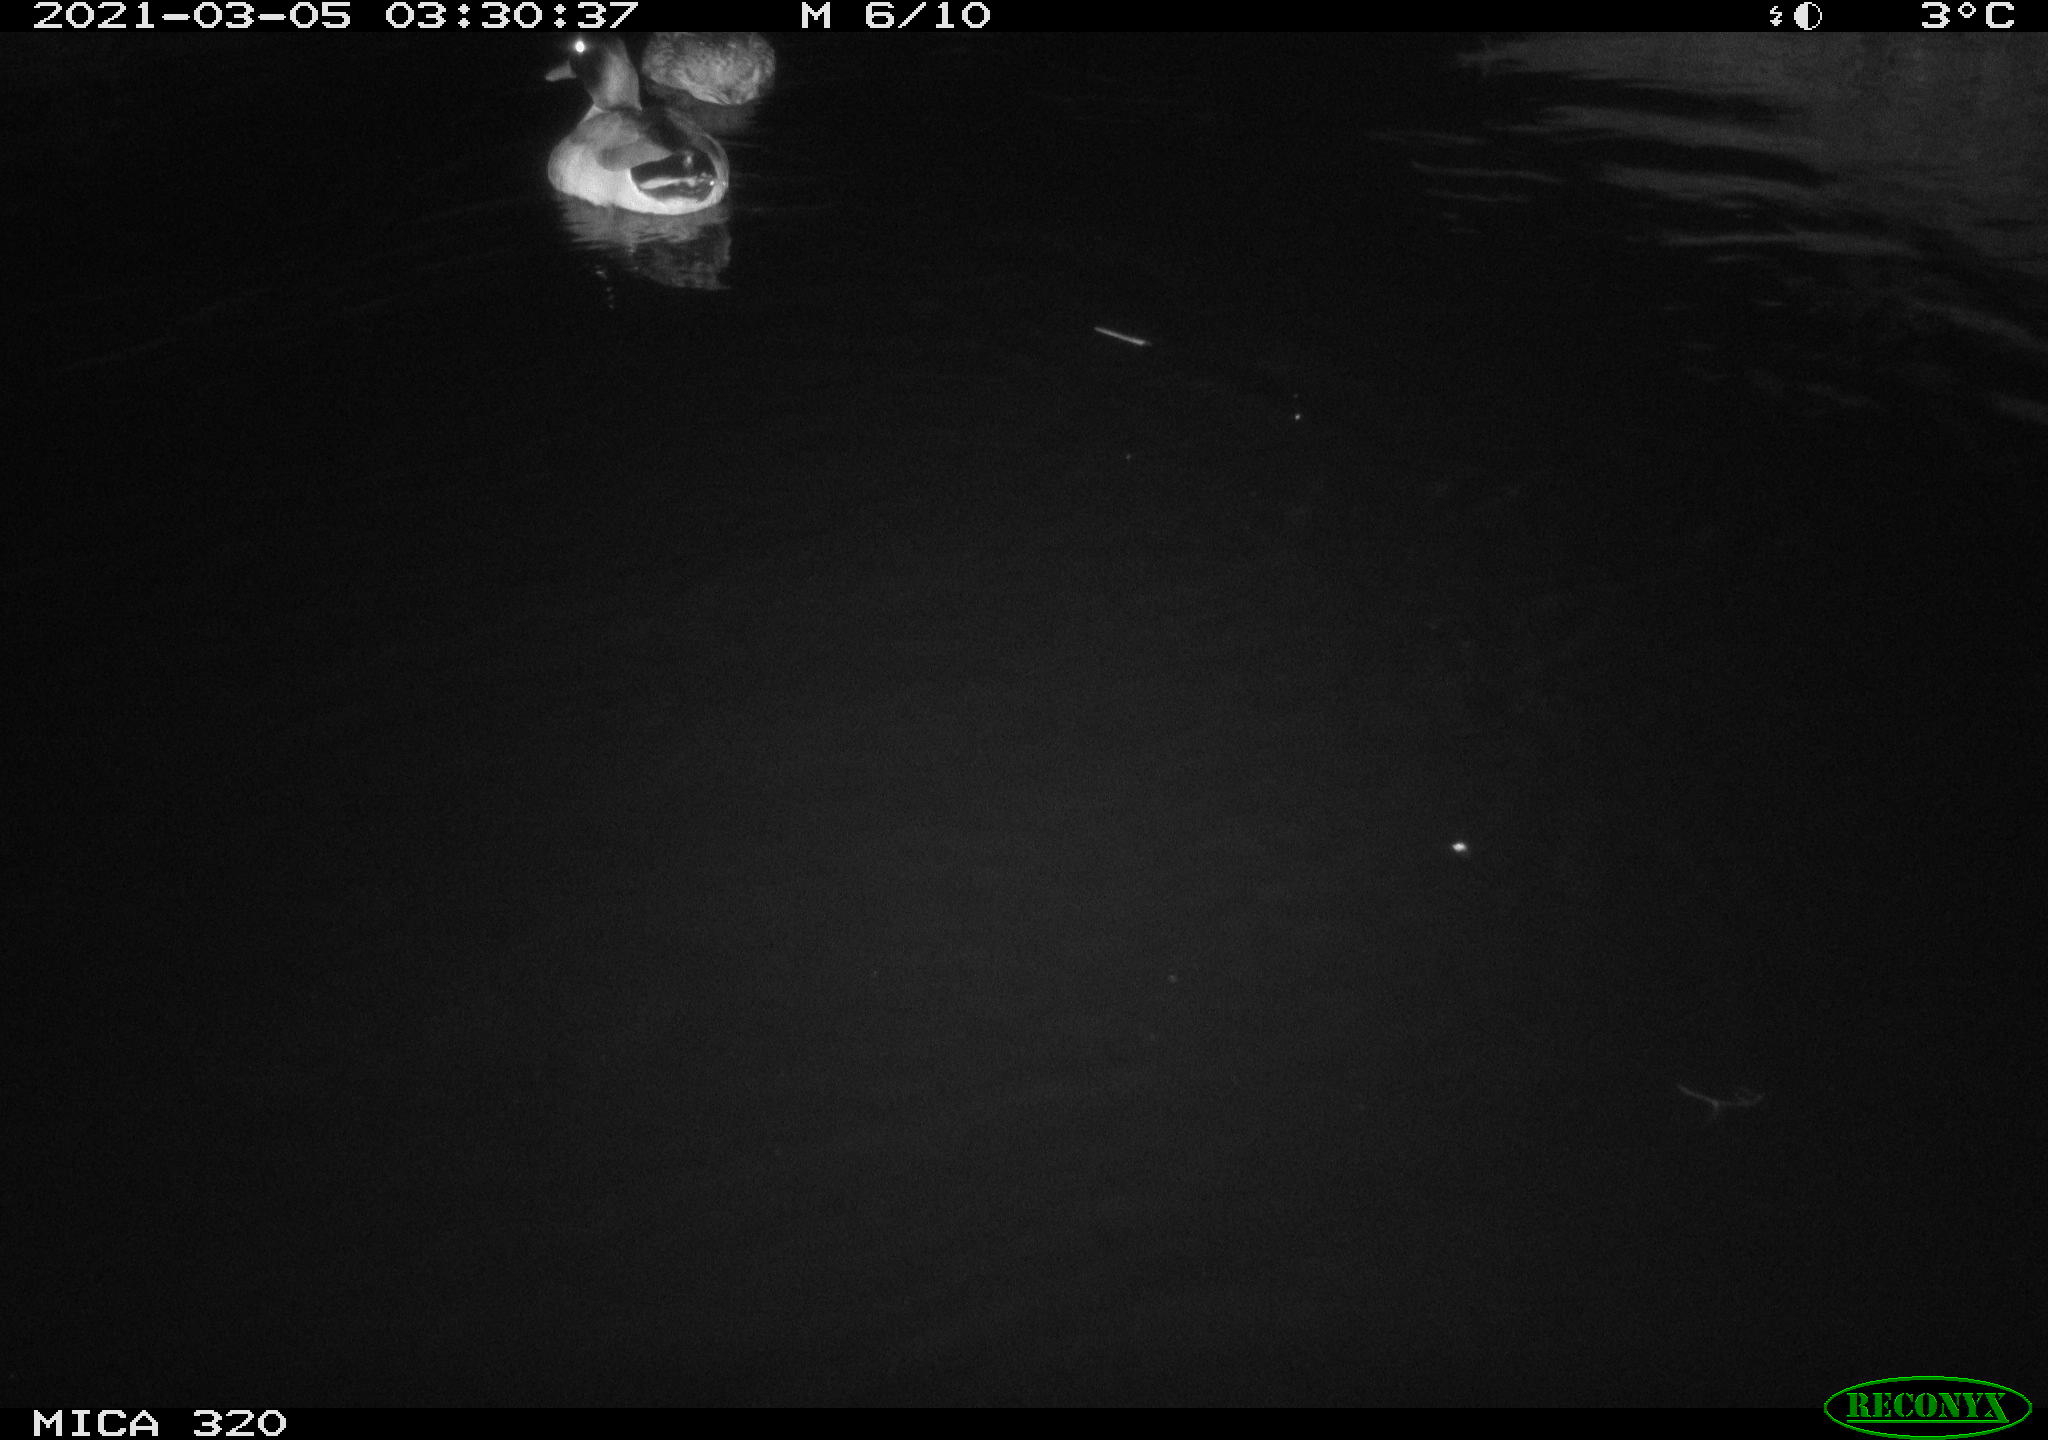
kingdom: Animalia
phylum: Chordata
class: Aves
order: Anseriformes
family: Anatidae
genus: Anas
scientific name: Anas platyrhynchos
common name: Mallard
